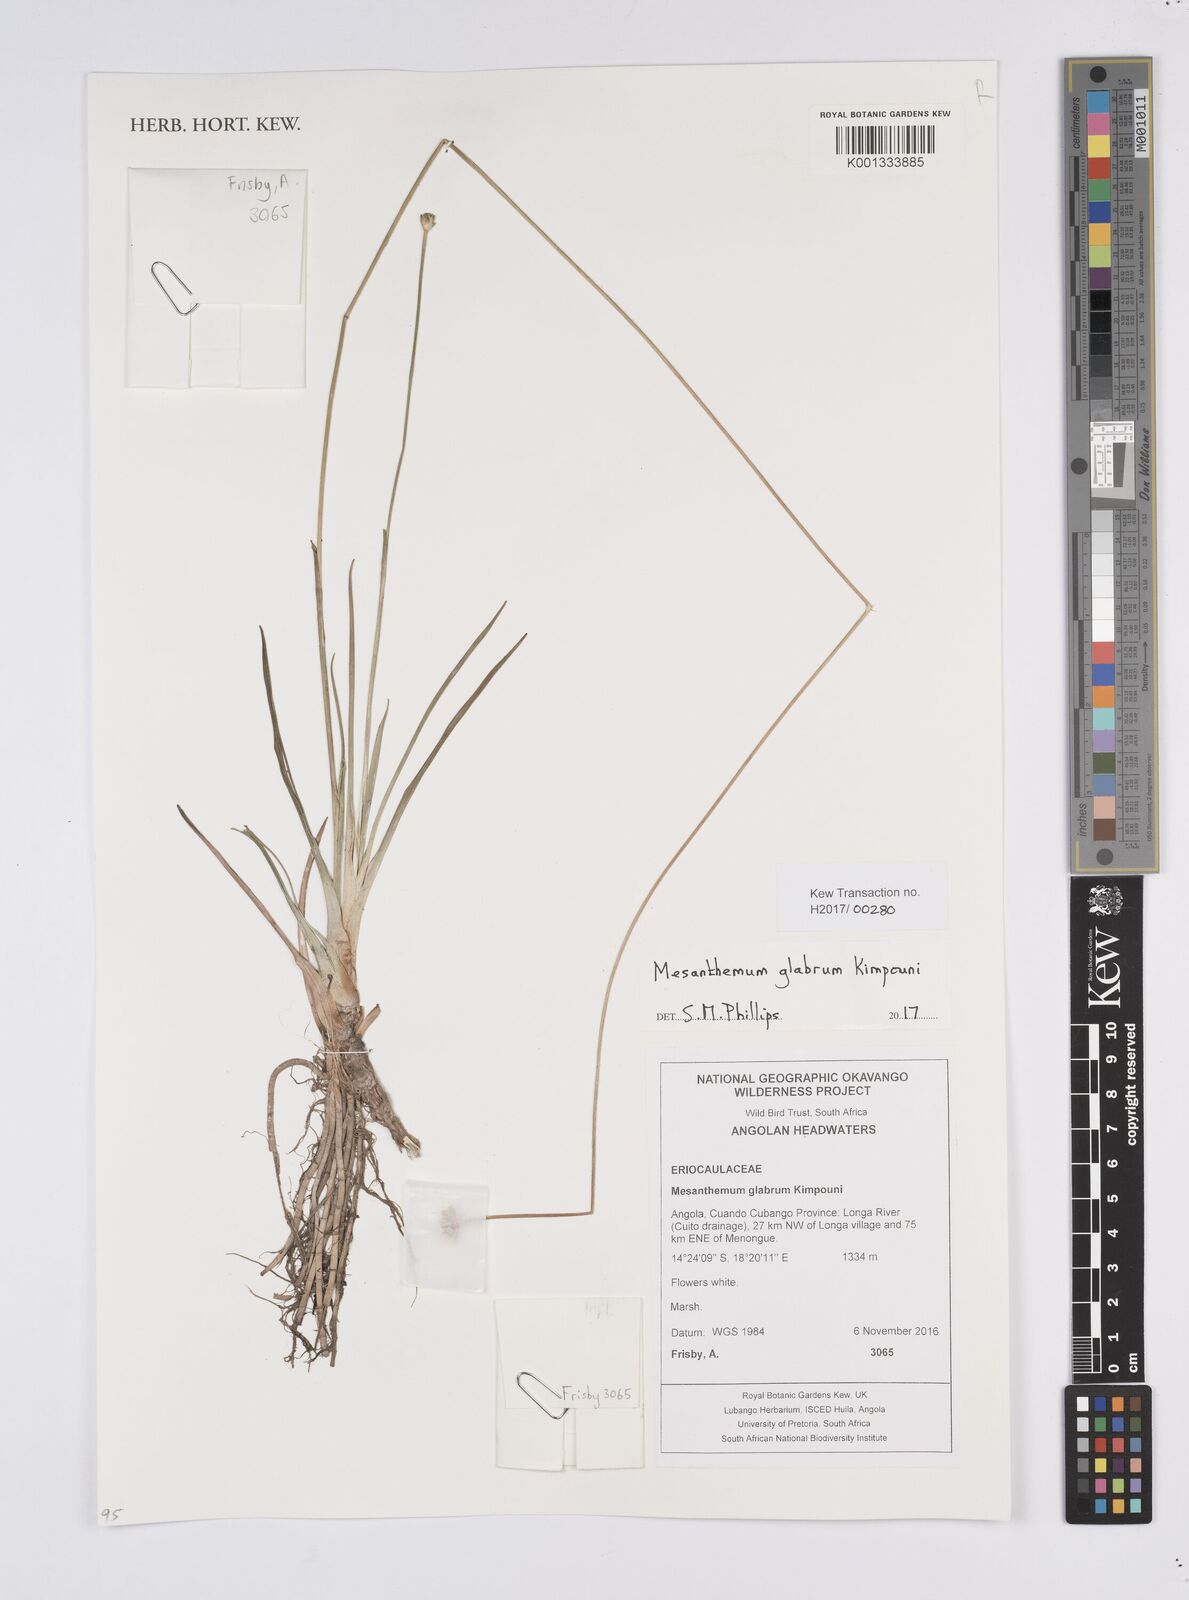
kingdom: Plantae
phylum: Tracheophyta
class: Liliopsida
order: Poales
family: Eriocaulaceae
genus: Mesanthemum
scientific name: Mesanthemum glabrum
